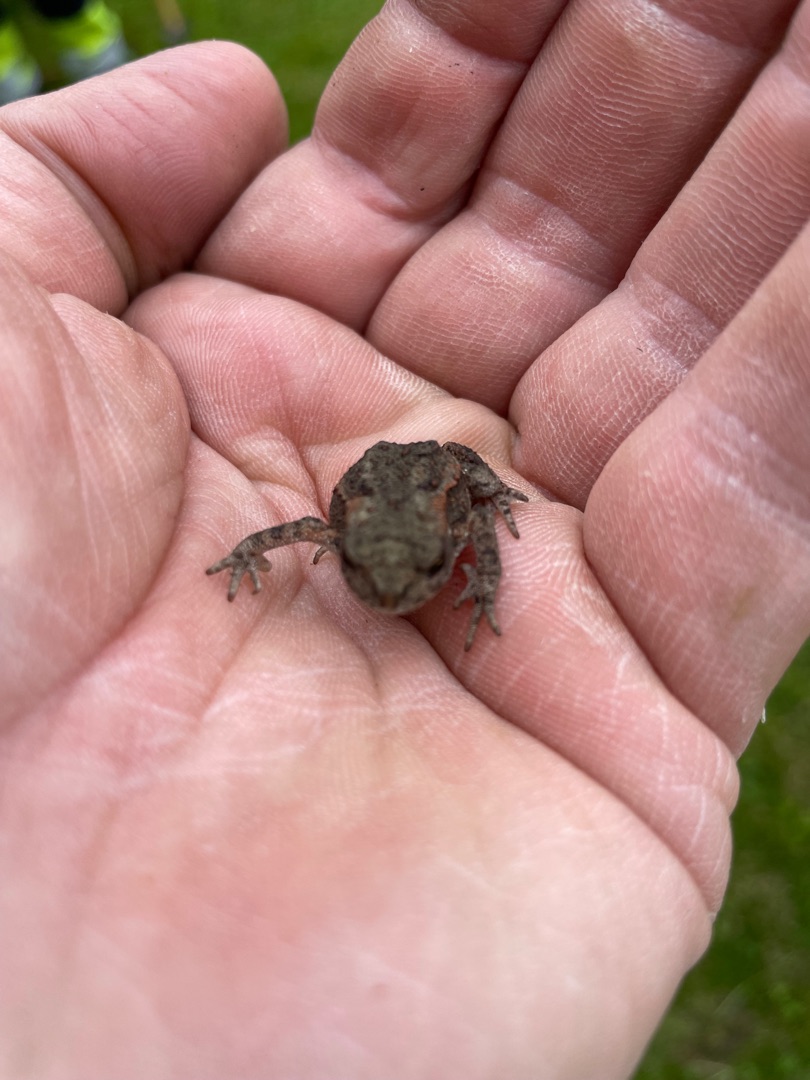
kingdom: Animalia
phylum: Chordata
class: Amphibia
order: Anura
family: Bufonidae
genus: Bufo
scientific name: Bufo bufo
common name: Skrubtudse
